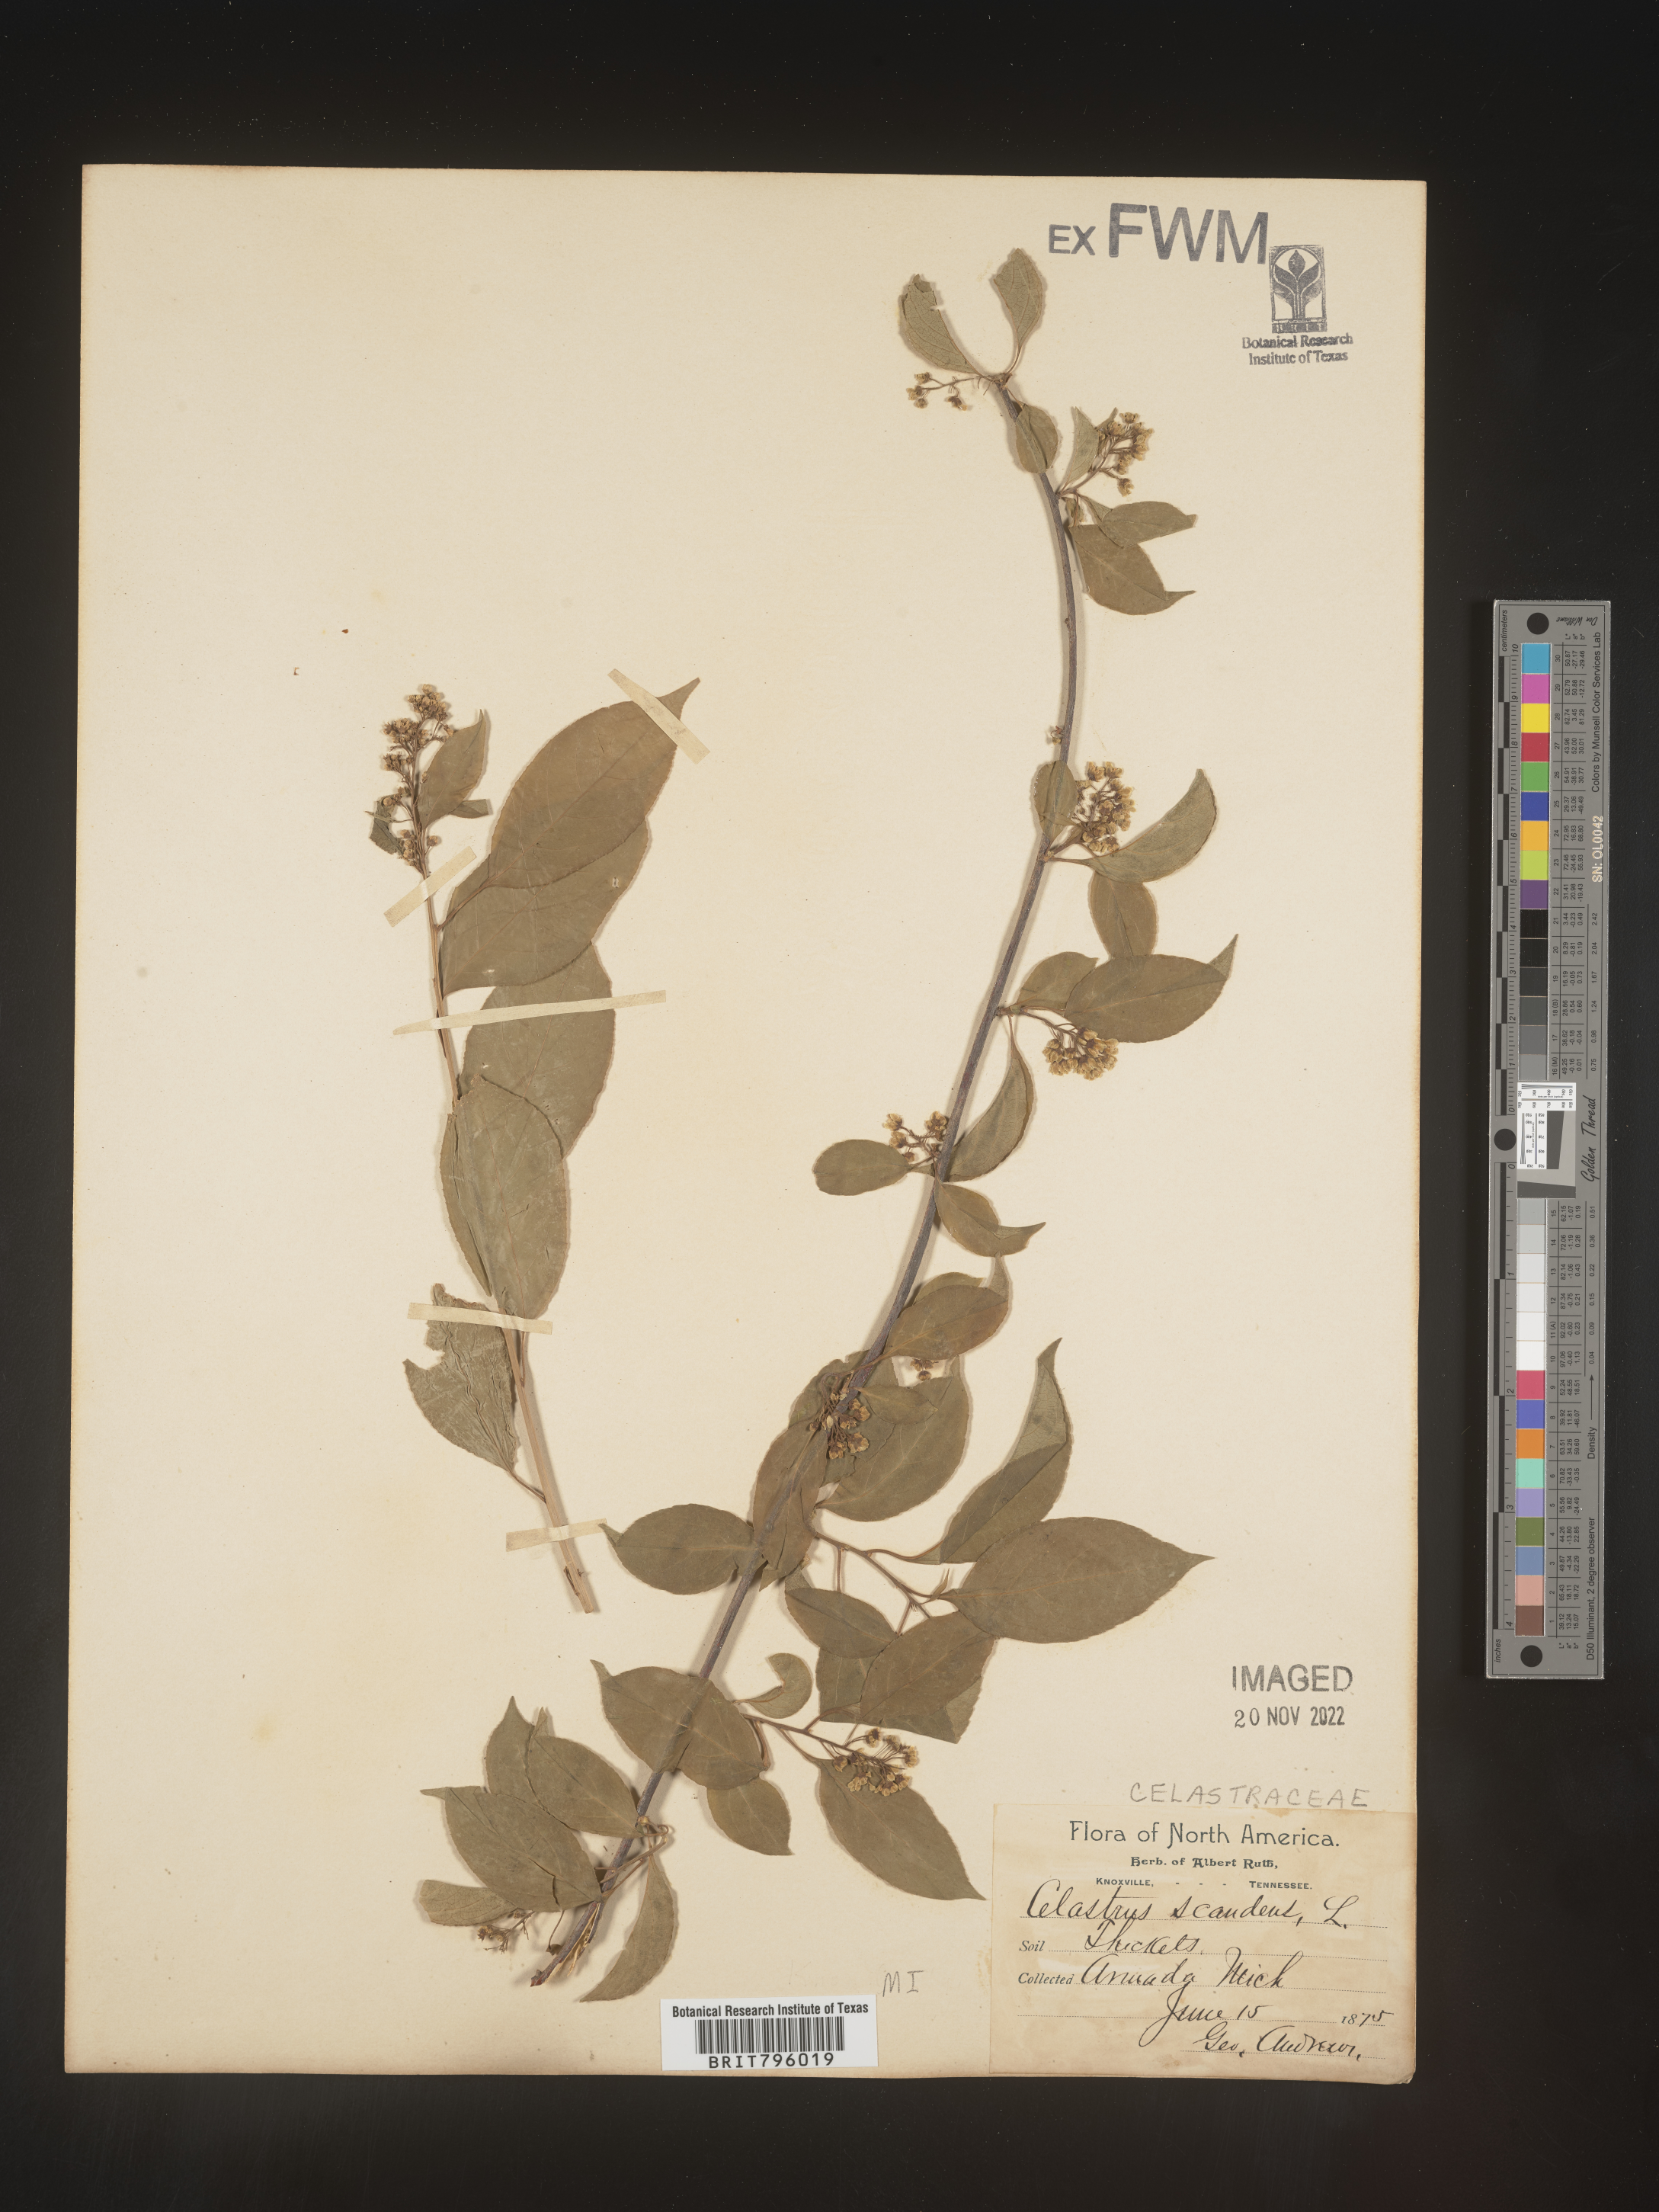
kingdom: Plantae
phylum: Tracheophyta
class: Magnoliopsida
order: Celastrales
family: Celastraceae
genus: Celastrus
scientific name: Celastrus scandens
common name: American bittersweet
